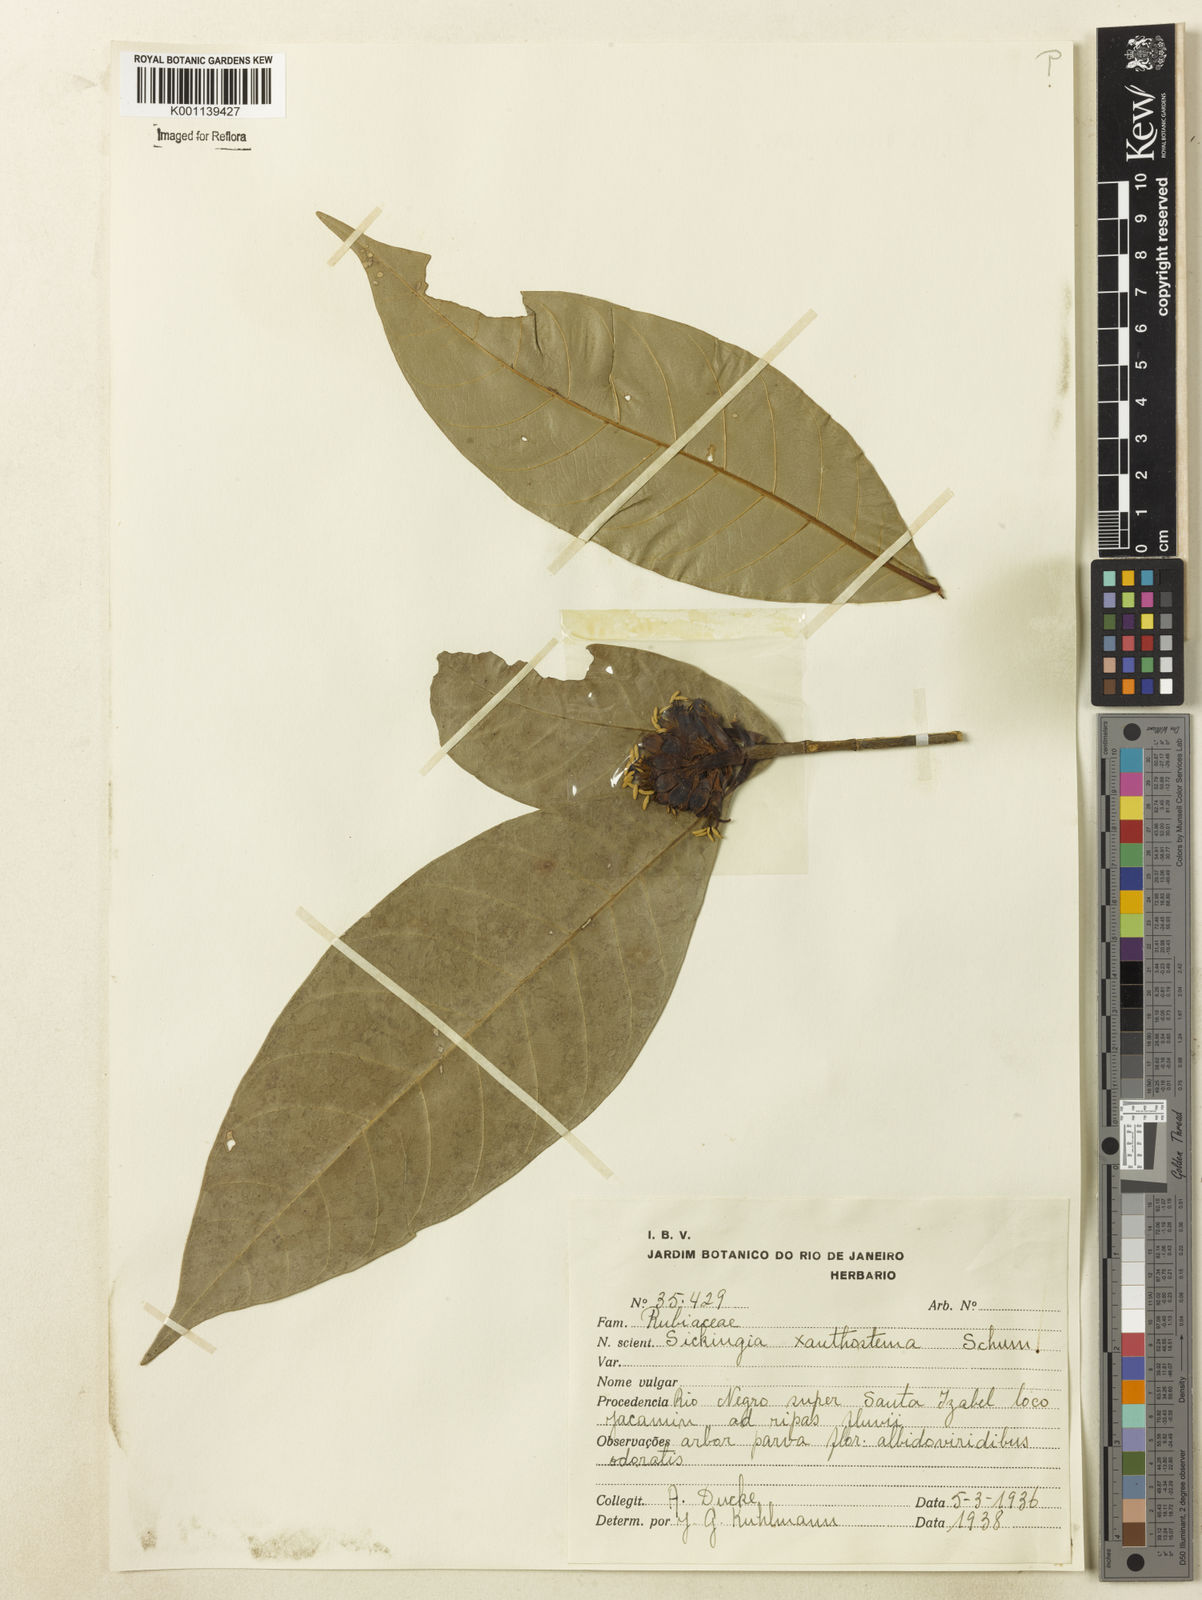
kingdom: Plantae
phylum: Tracheophyta
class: Magnoliopsida
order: Gentianales
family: Rubiaceae
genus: Simira
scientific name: Simira rubescens
